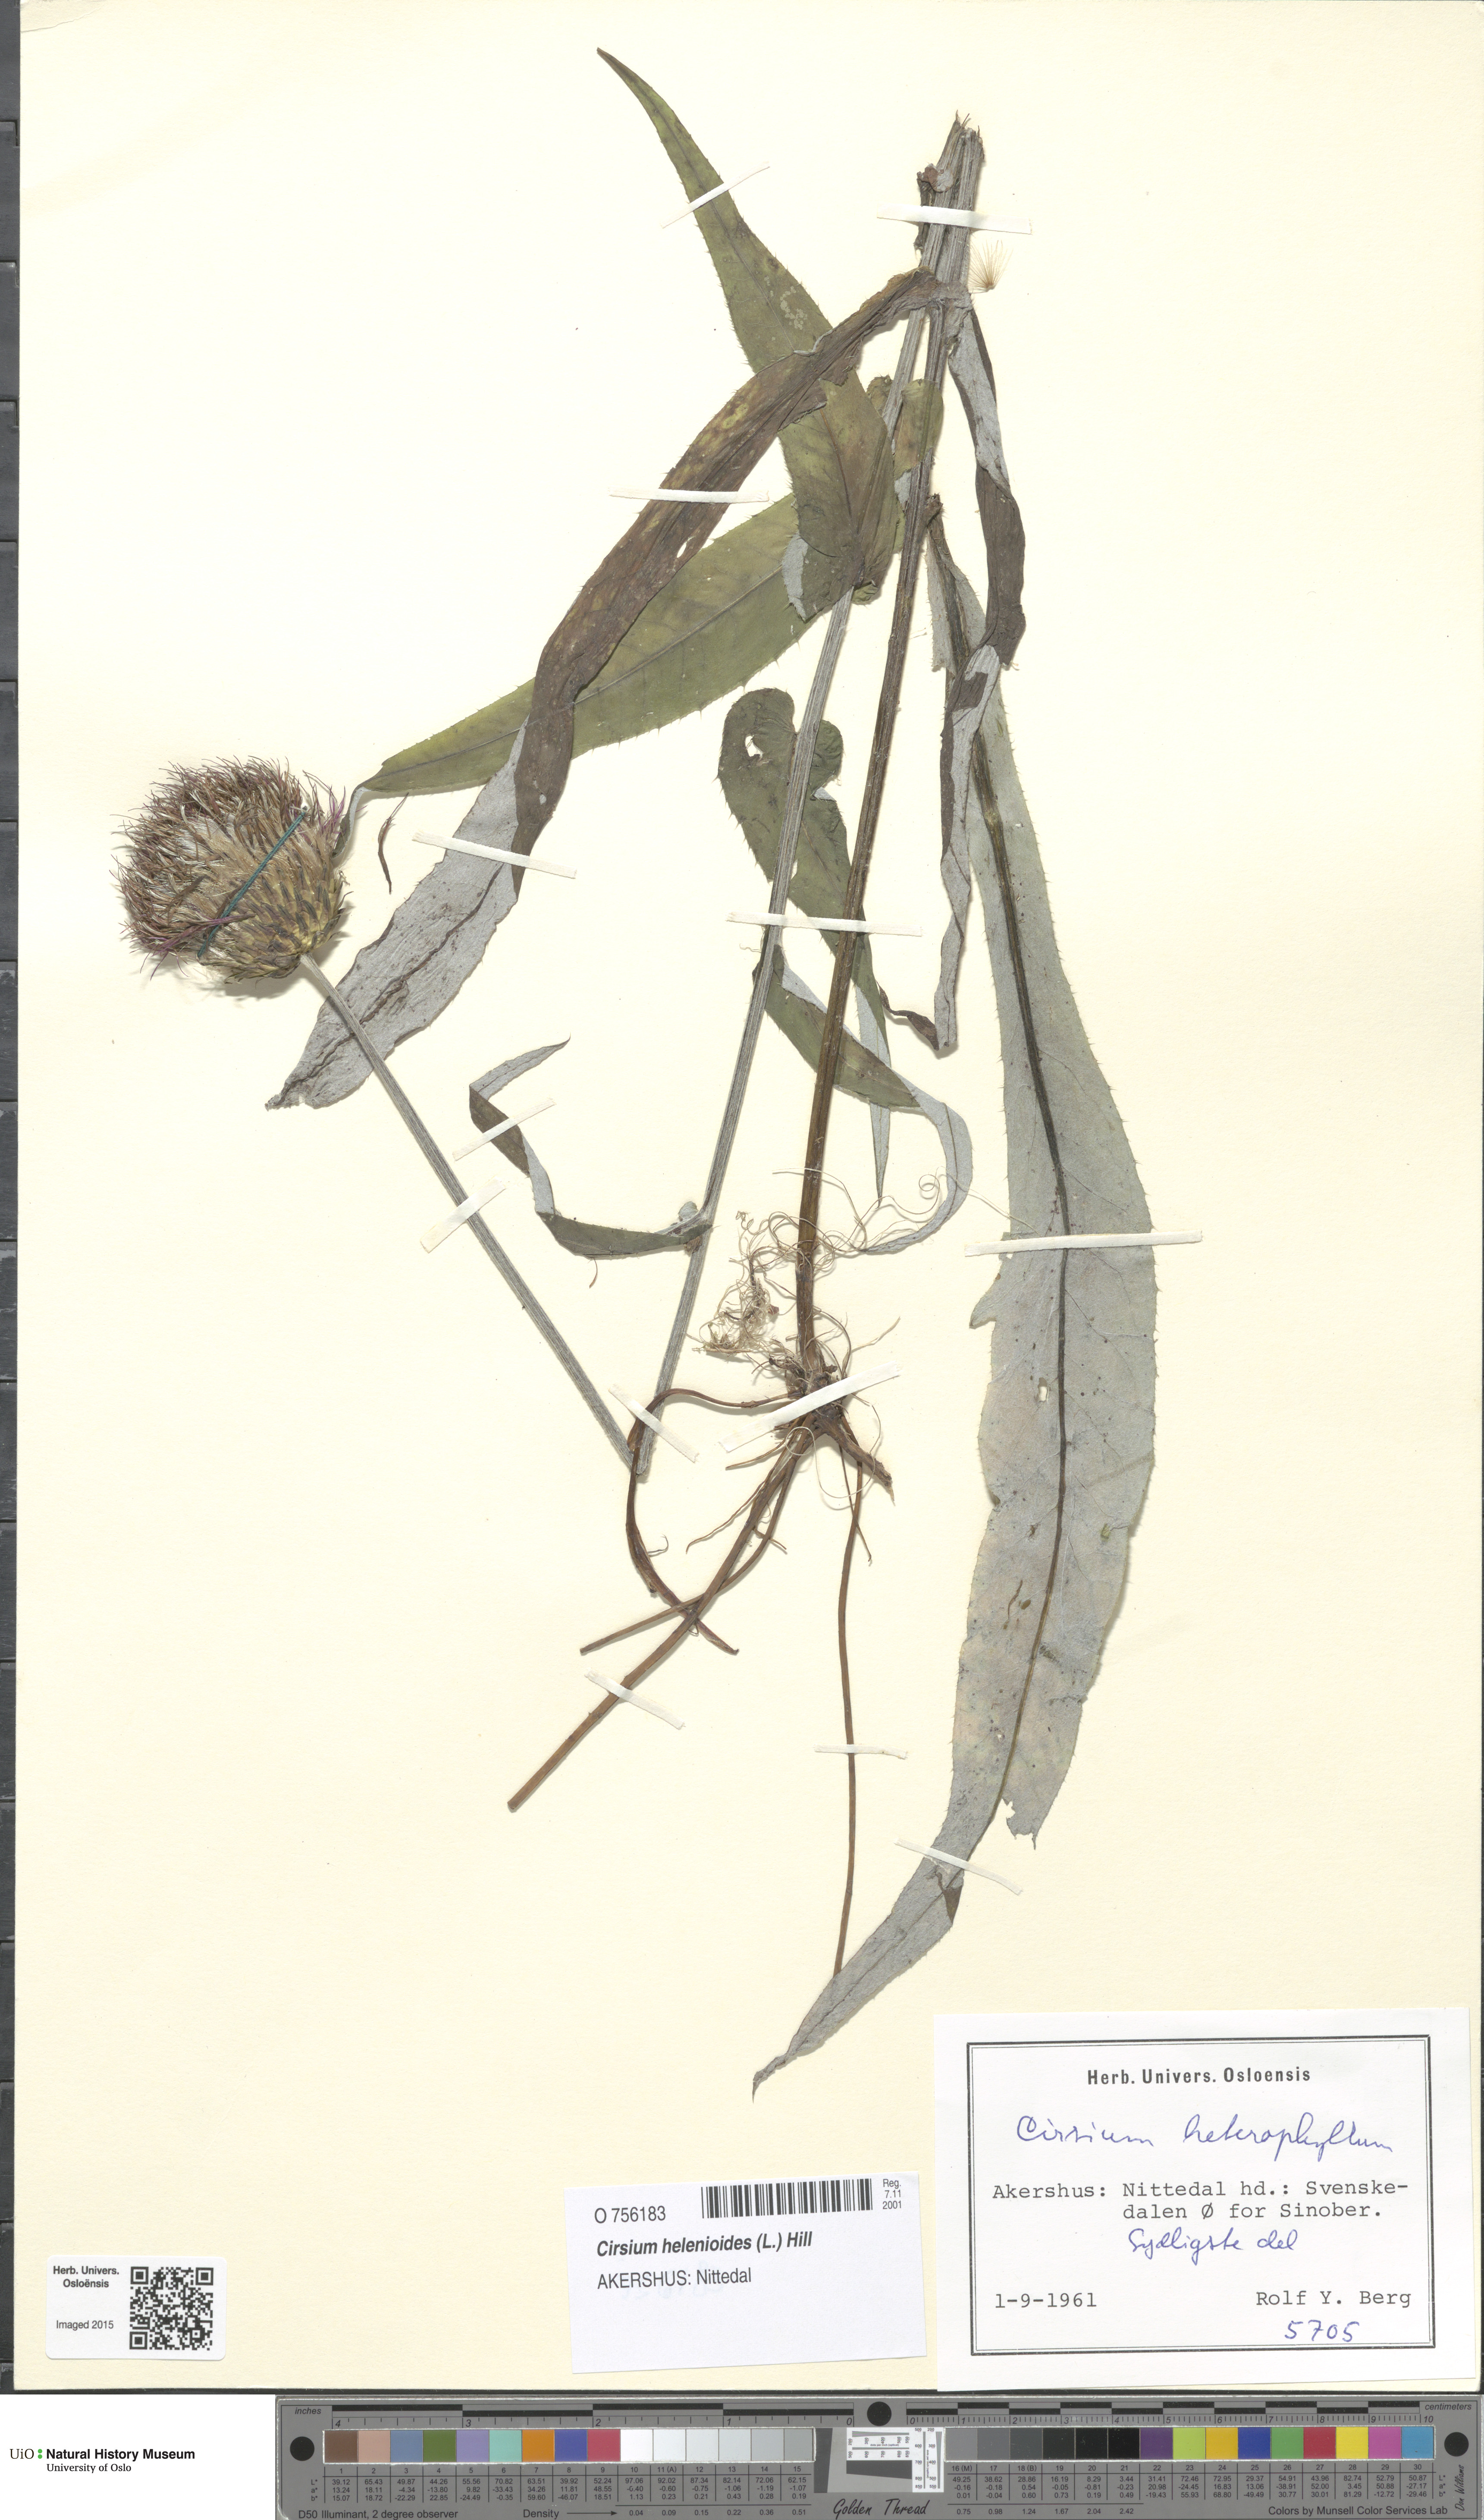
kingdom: Plantae
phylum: Tracheophyta
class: Magnoliopsida
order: Asterales
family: Asteraceae
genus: Cirsium
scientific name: Cirsium heterophyllum
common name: Melancholy thistle
